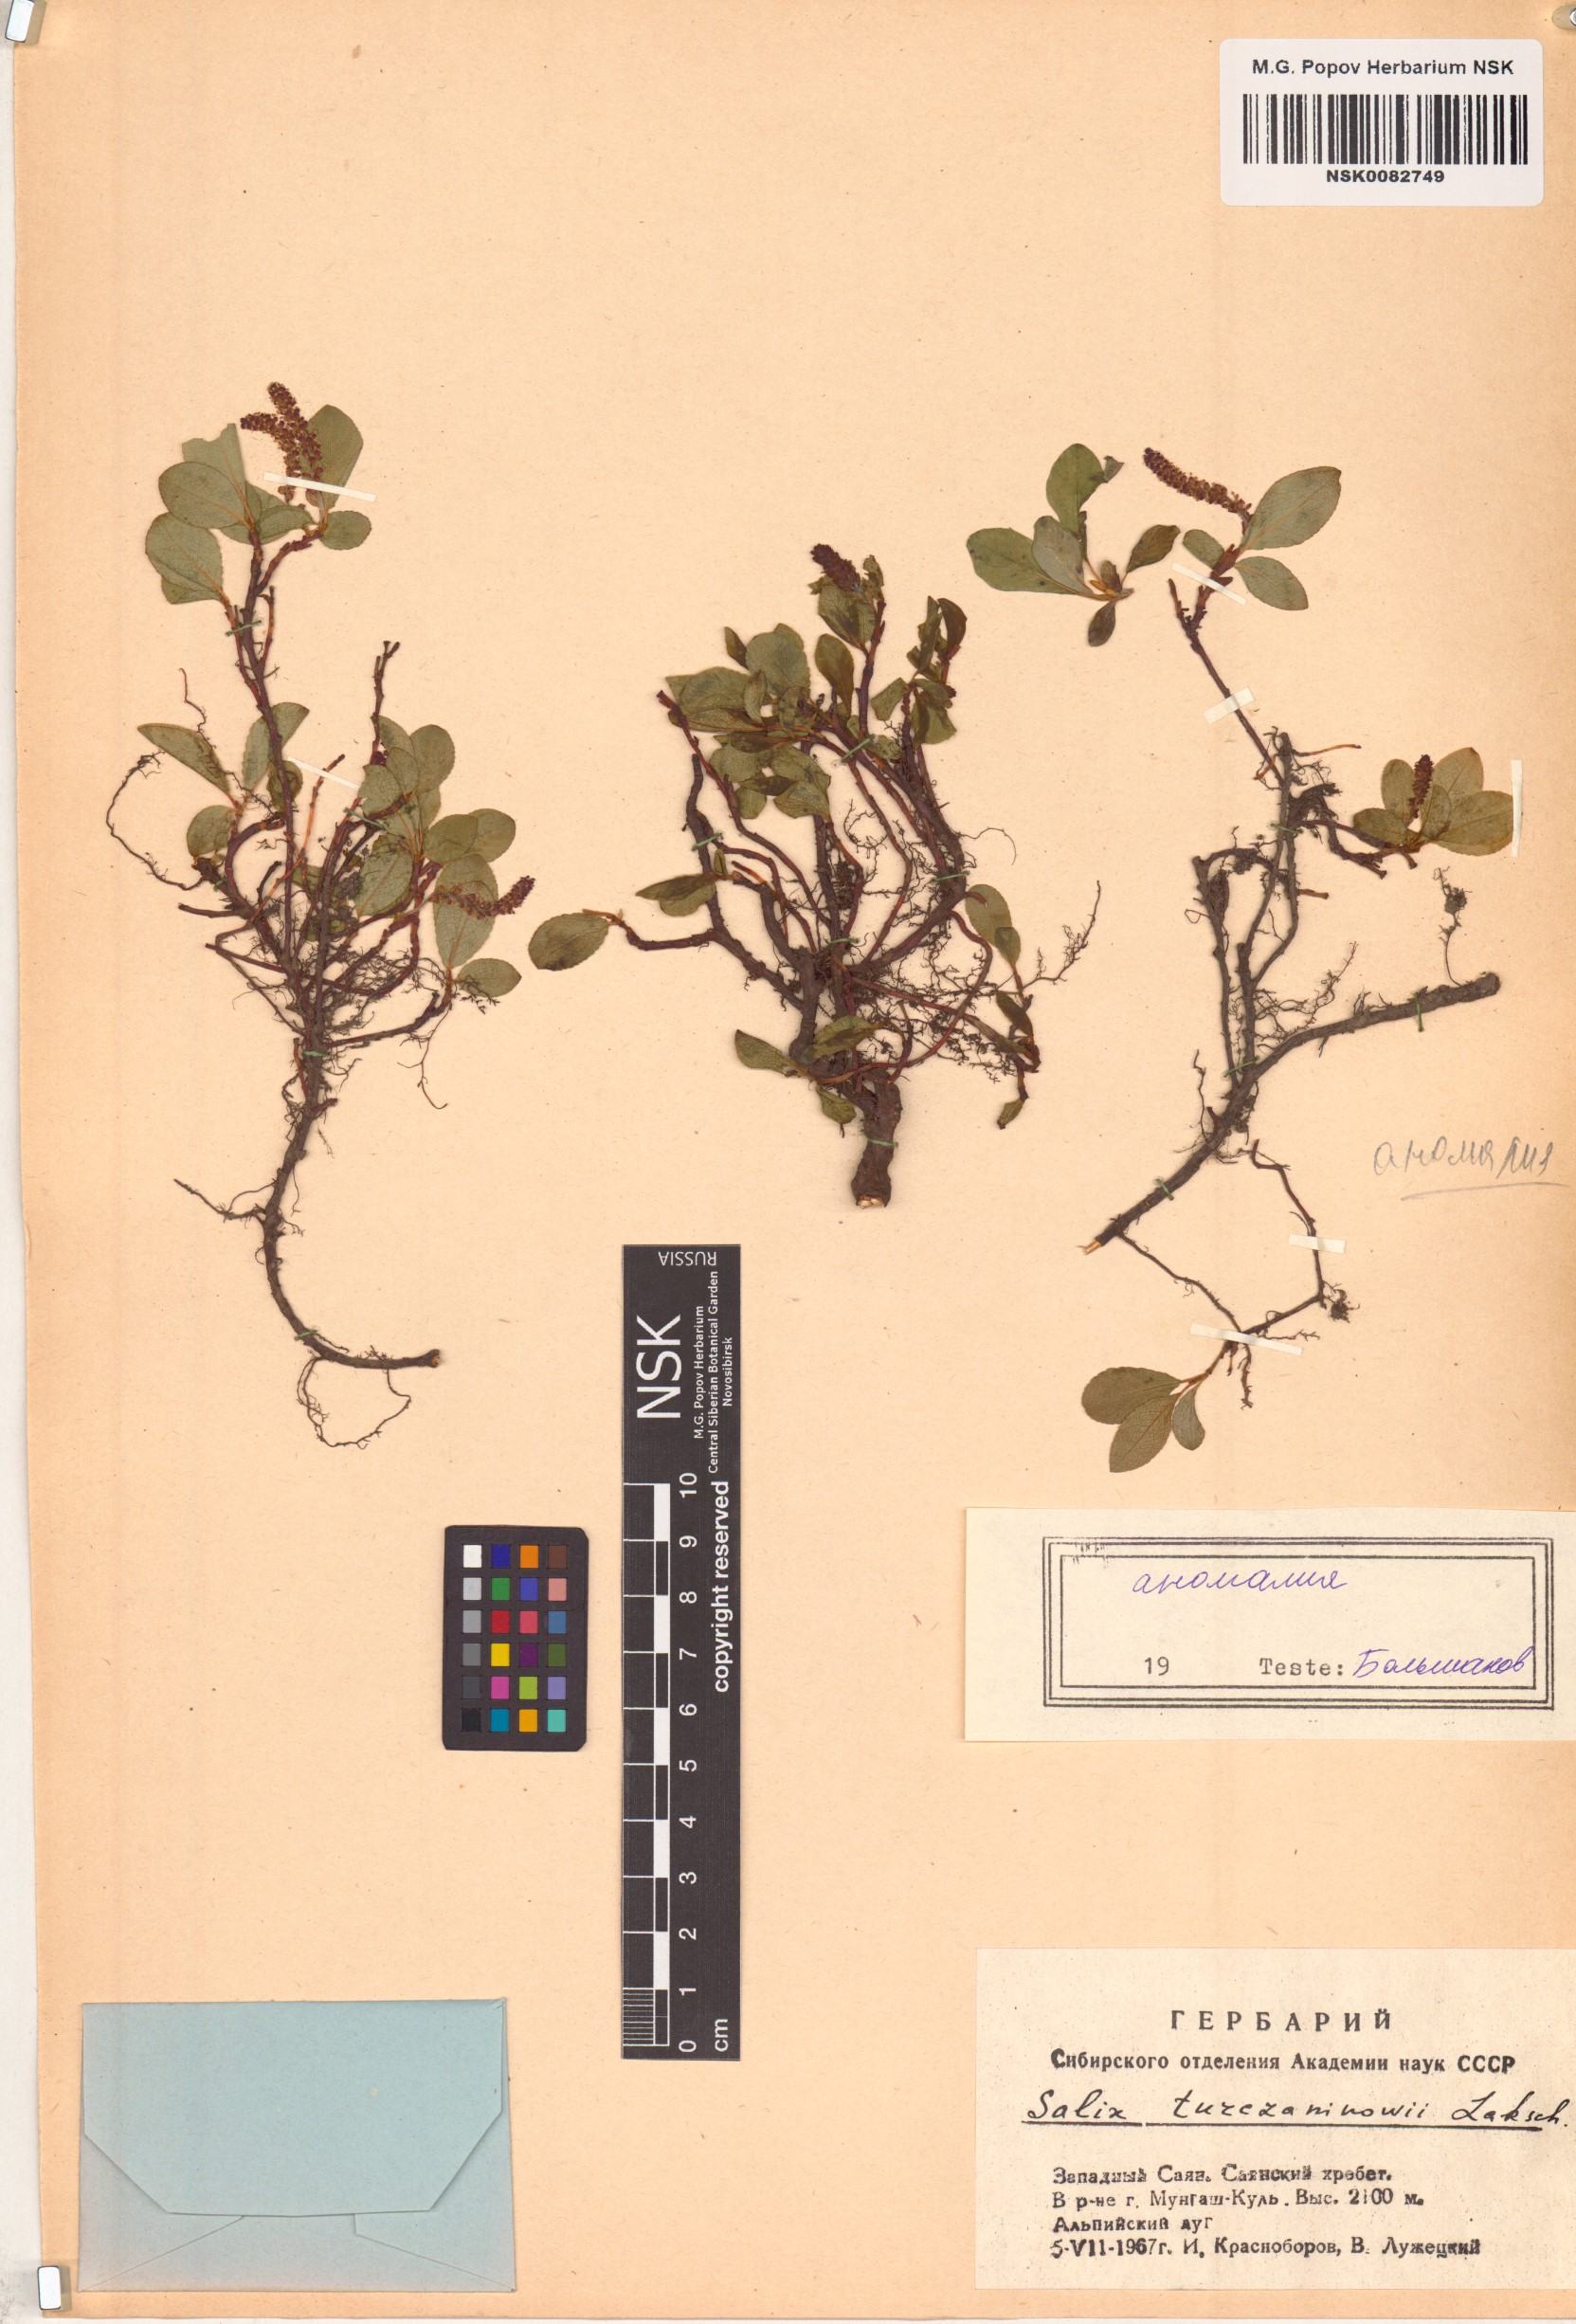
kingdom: Plantae
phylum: Tracheophyta
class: Magnoliopsida
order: Malpighiales
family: Salicaceae
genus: Salix
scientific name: Salix turczaninowii
